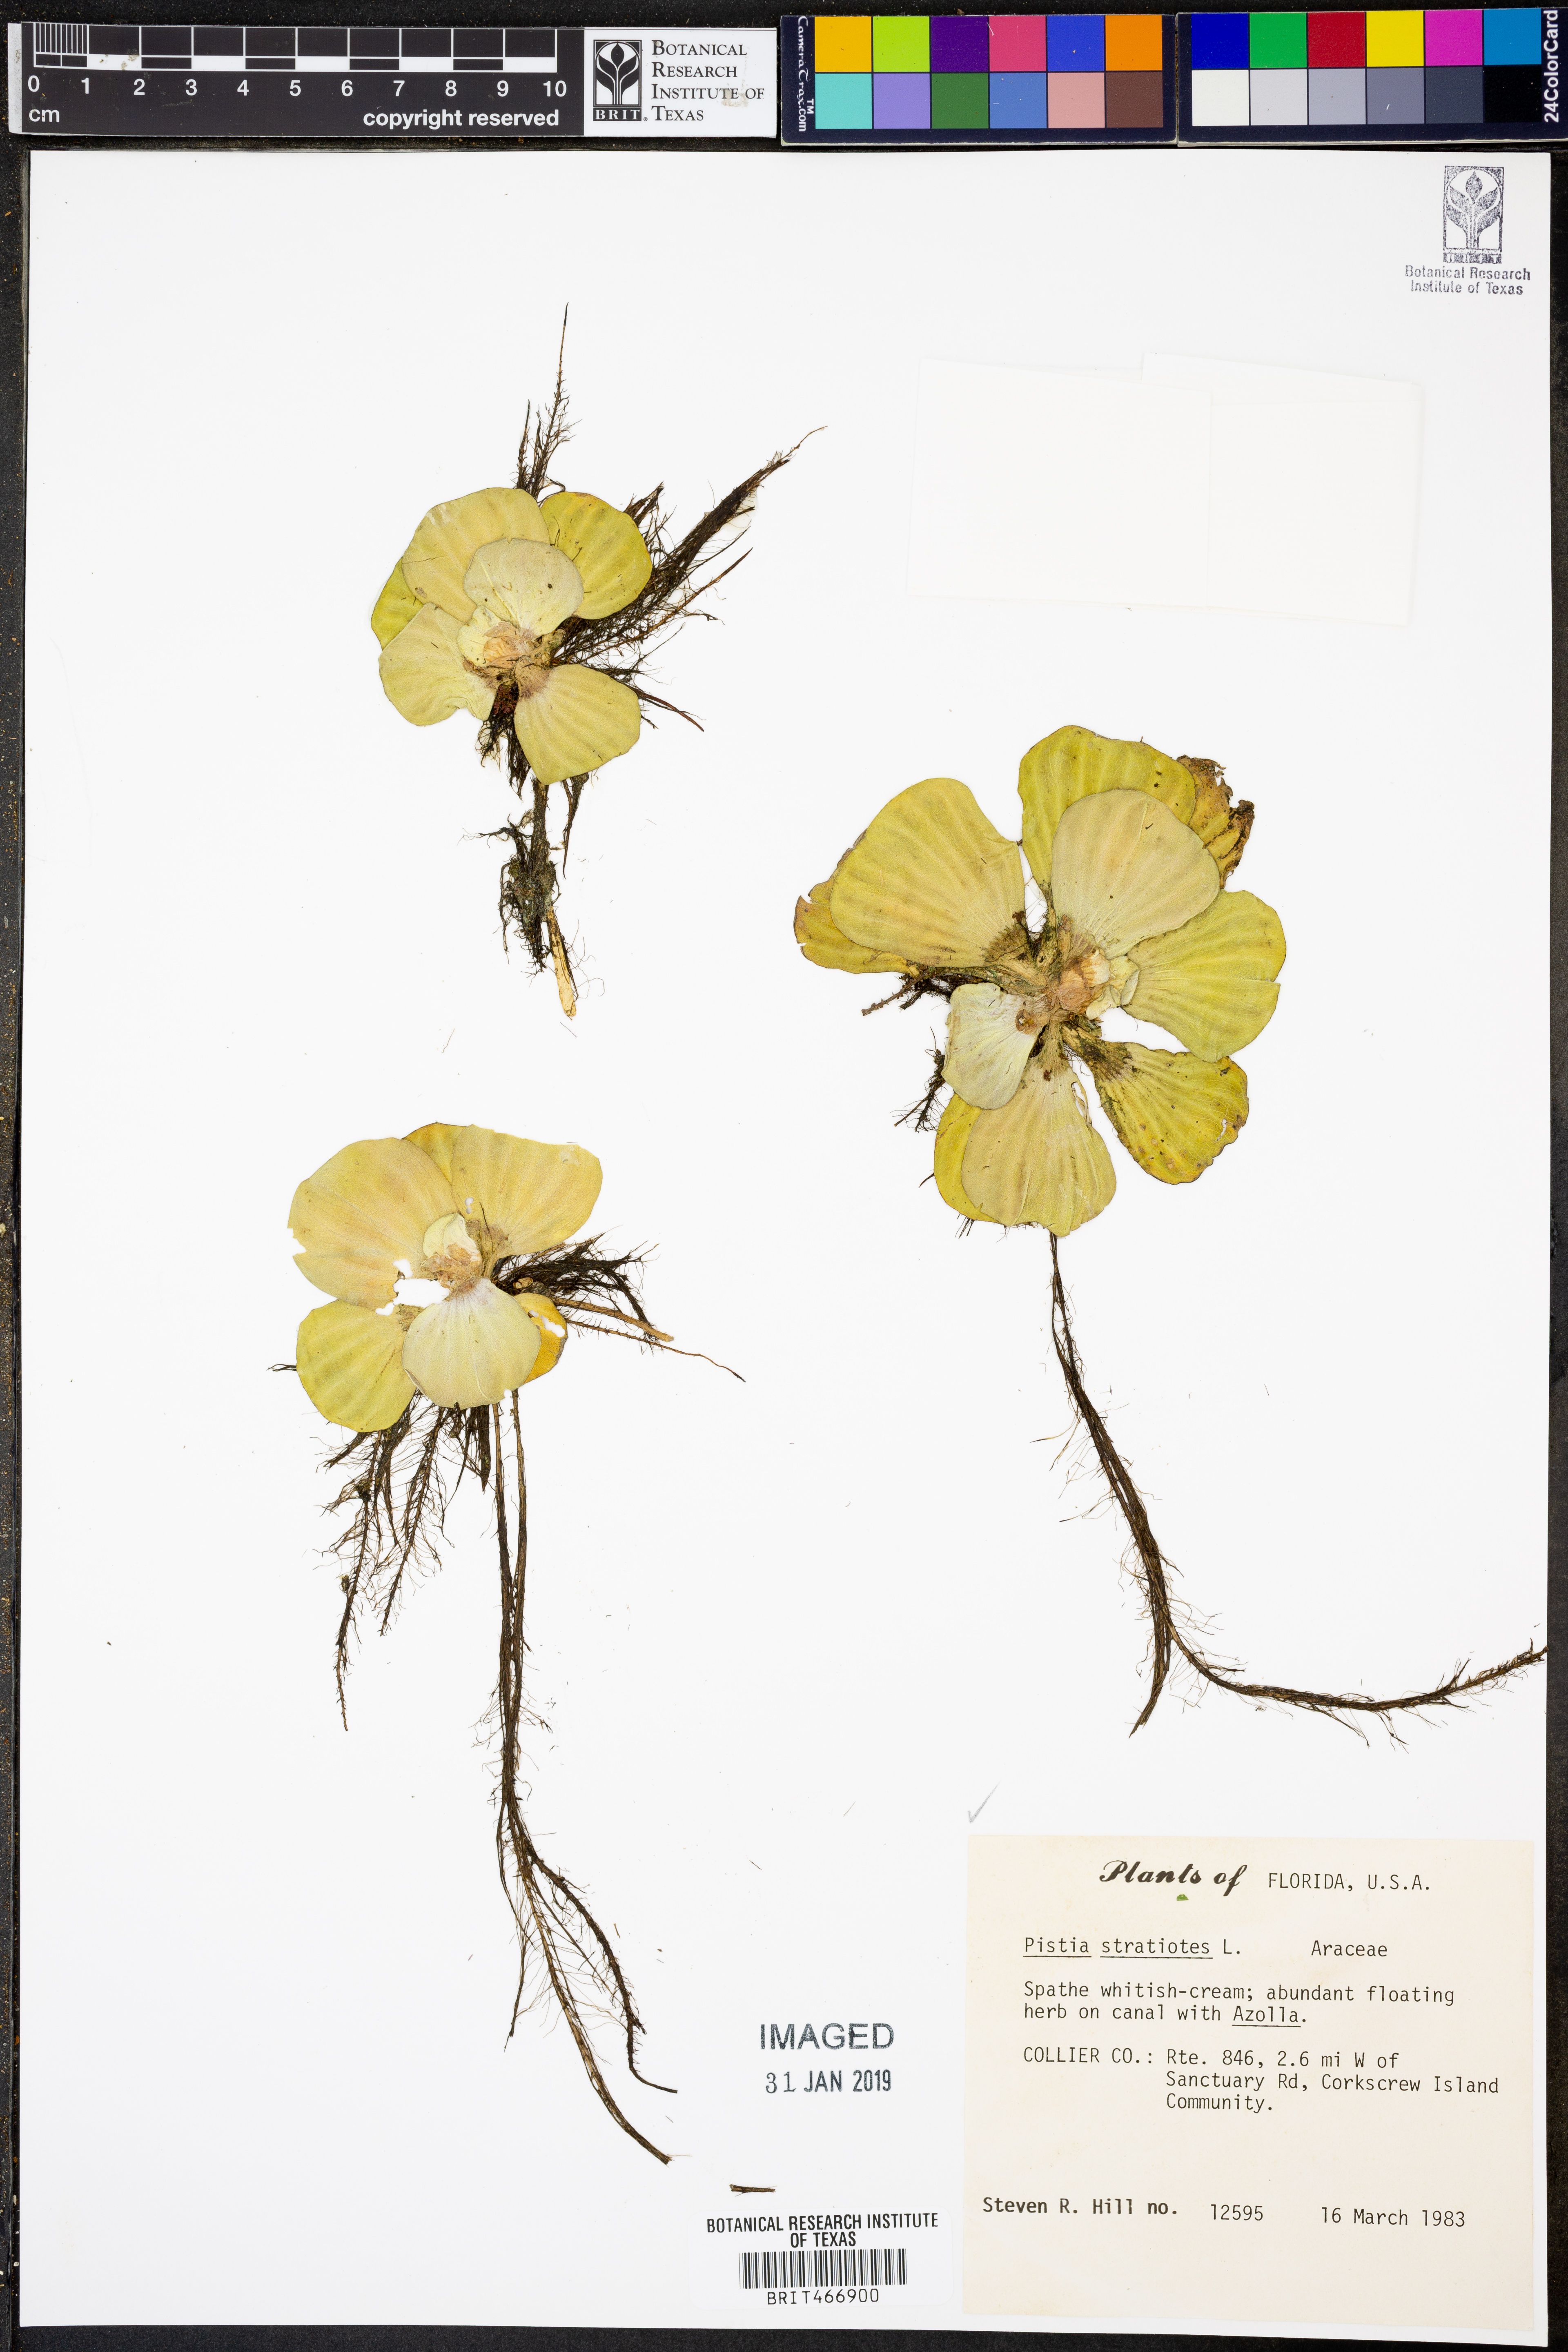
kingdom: Plantae
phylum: Tracheophyta
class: Liliopsida
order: Alismatales
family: Araceae
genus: Pistia
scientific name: Pistia stratiotes
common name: Water lettuce
